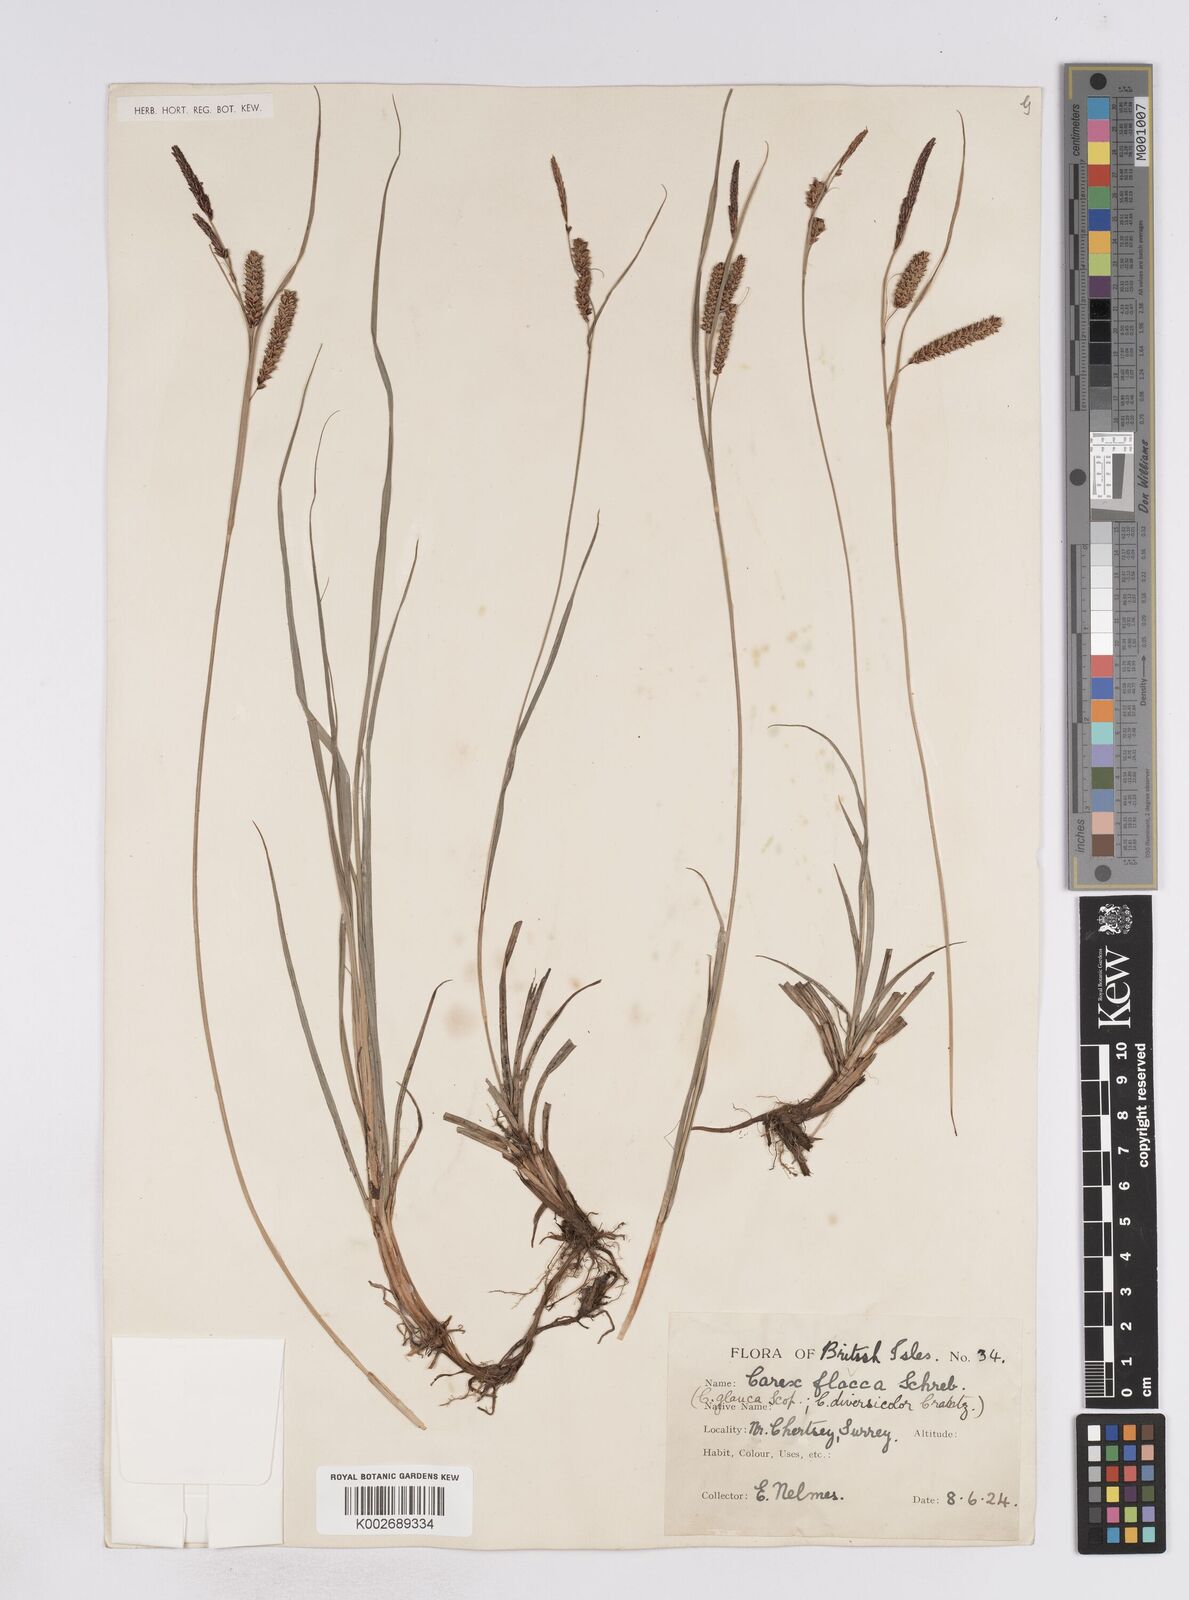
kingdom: Plantae
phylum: Tracheophyta
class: Liliopsida
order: Poales
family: Cyperaceae
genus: Carex
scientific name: Carex flacca
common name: Glaucous sedge
